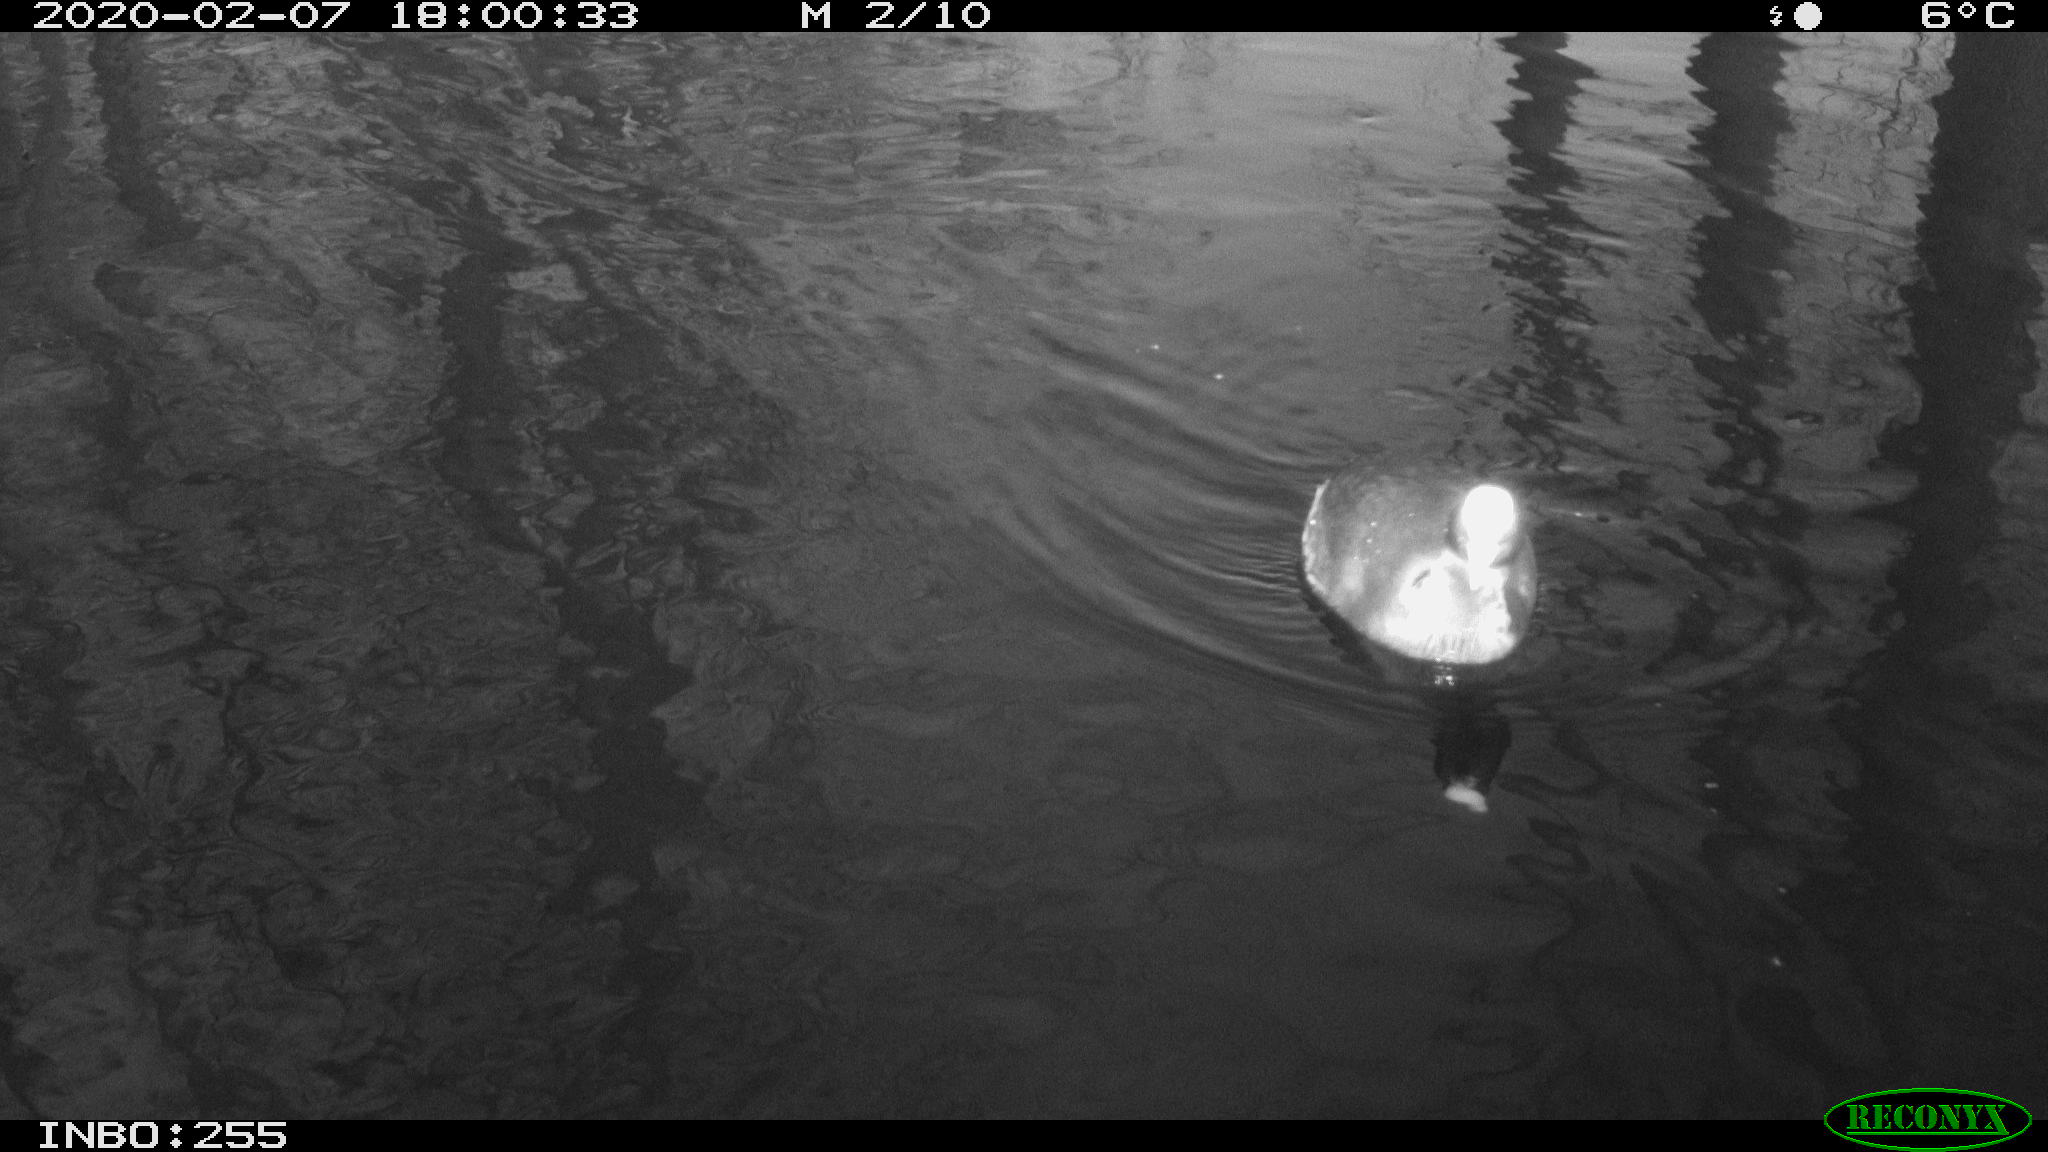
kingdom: Animalia
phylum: Chordata
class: Aves
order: Gruiformes
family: Rallidae
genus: Fulica
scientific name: Fulica atra
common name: Eurasian coot
